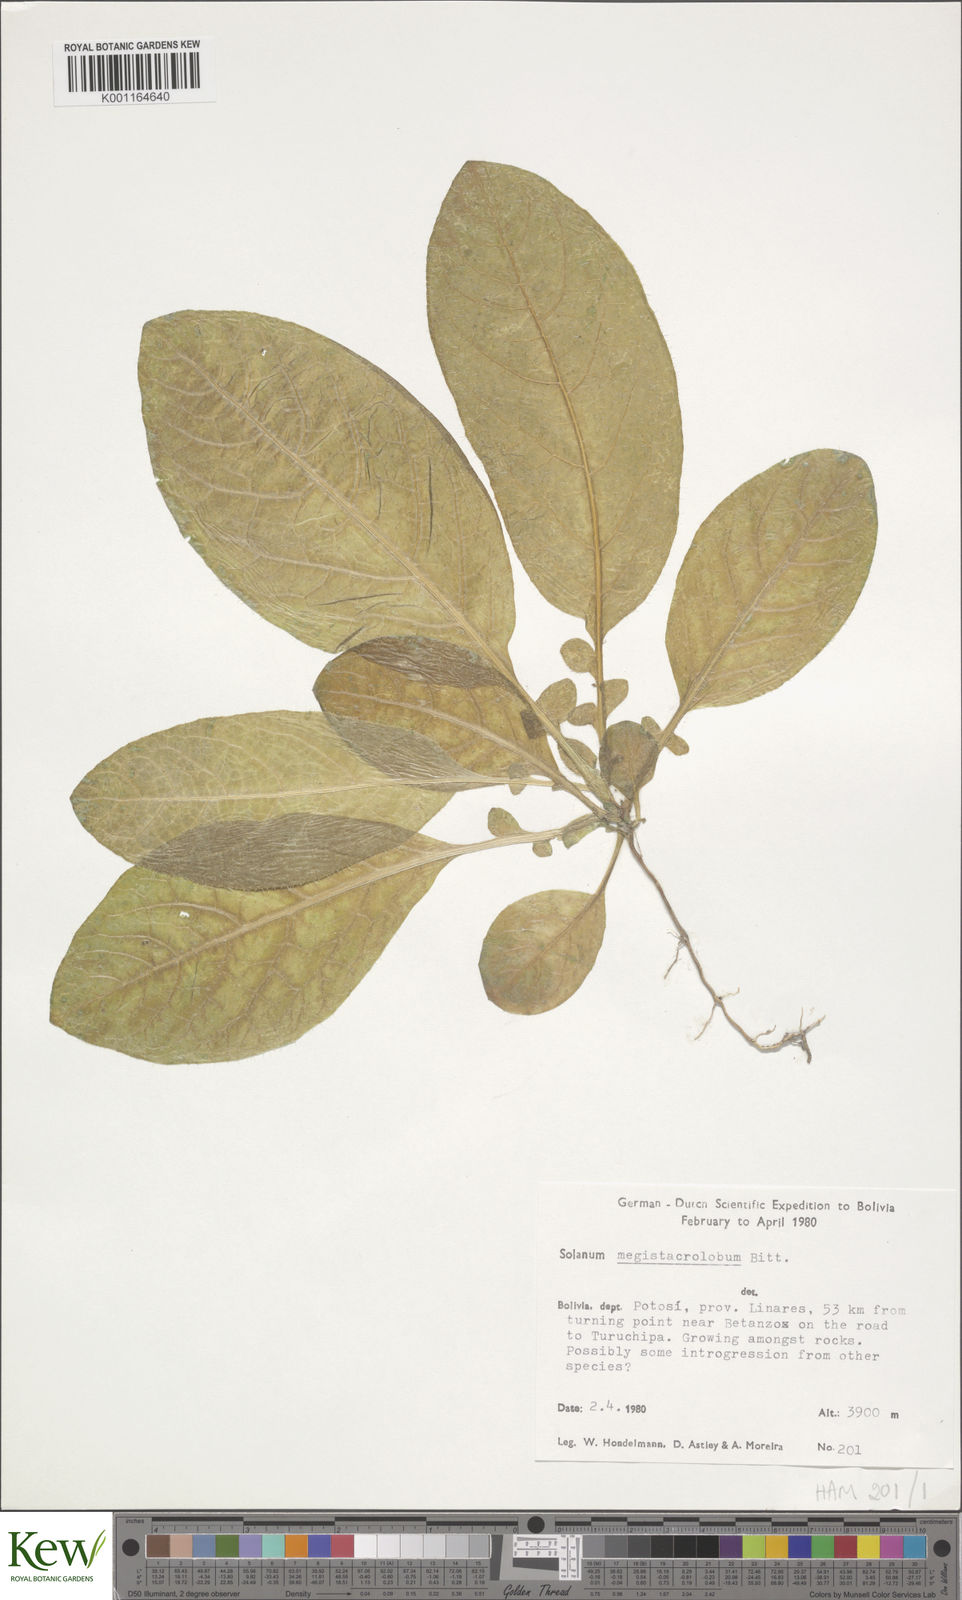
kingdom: Plantae
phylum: Tracheophyta
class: Magnoliopsida
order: Solanales
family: Solanaceae
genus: Solanum
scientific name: Solanum boliviense
